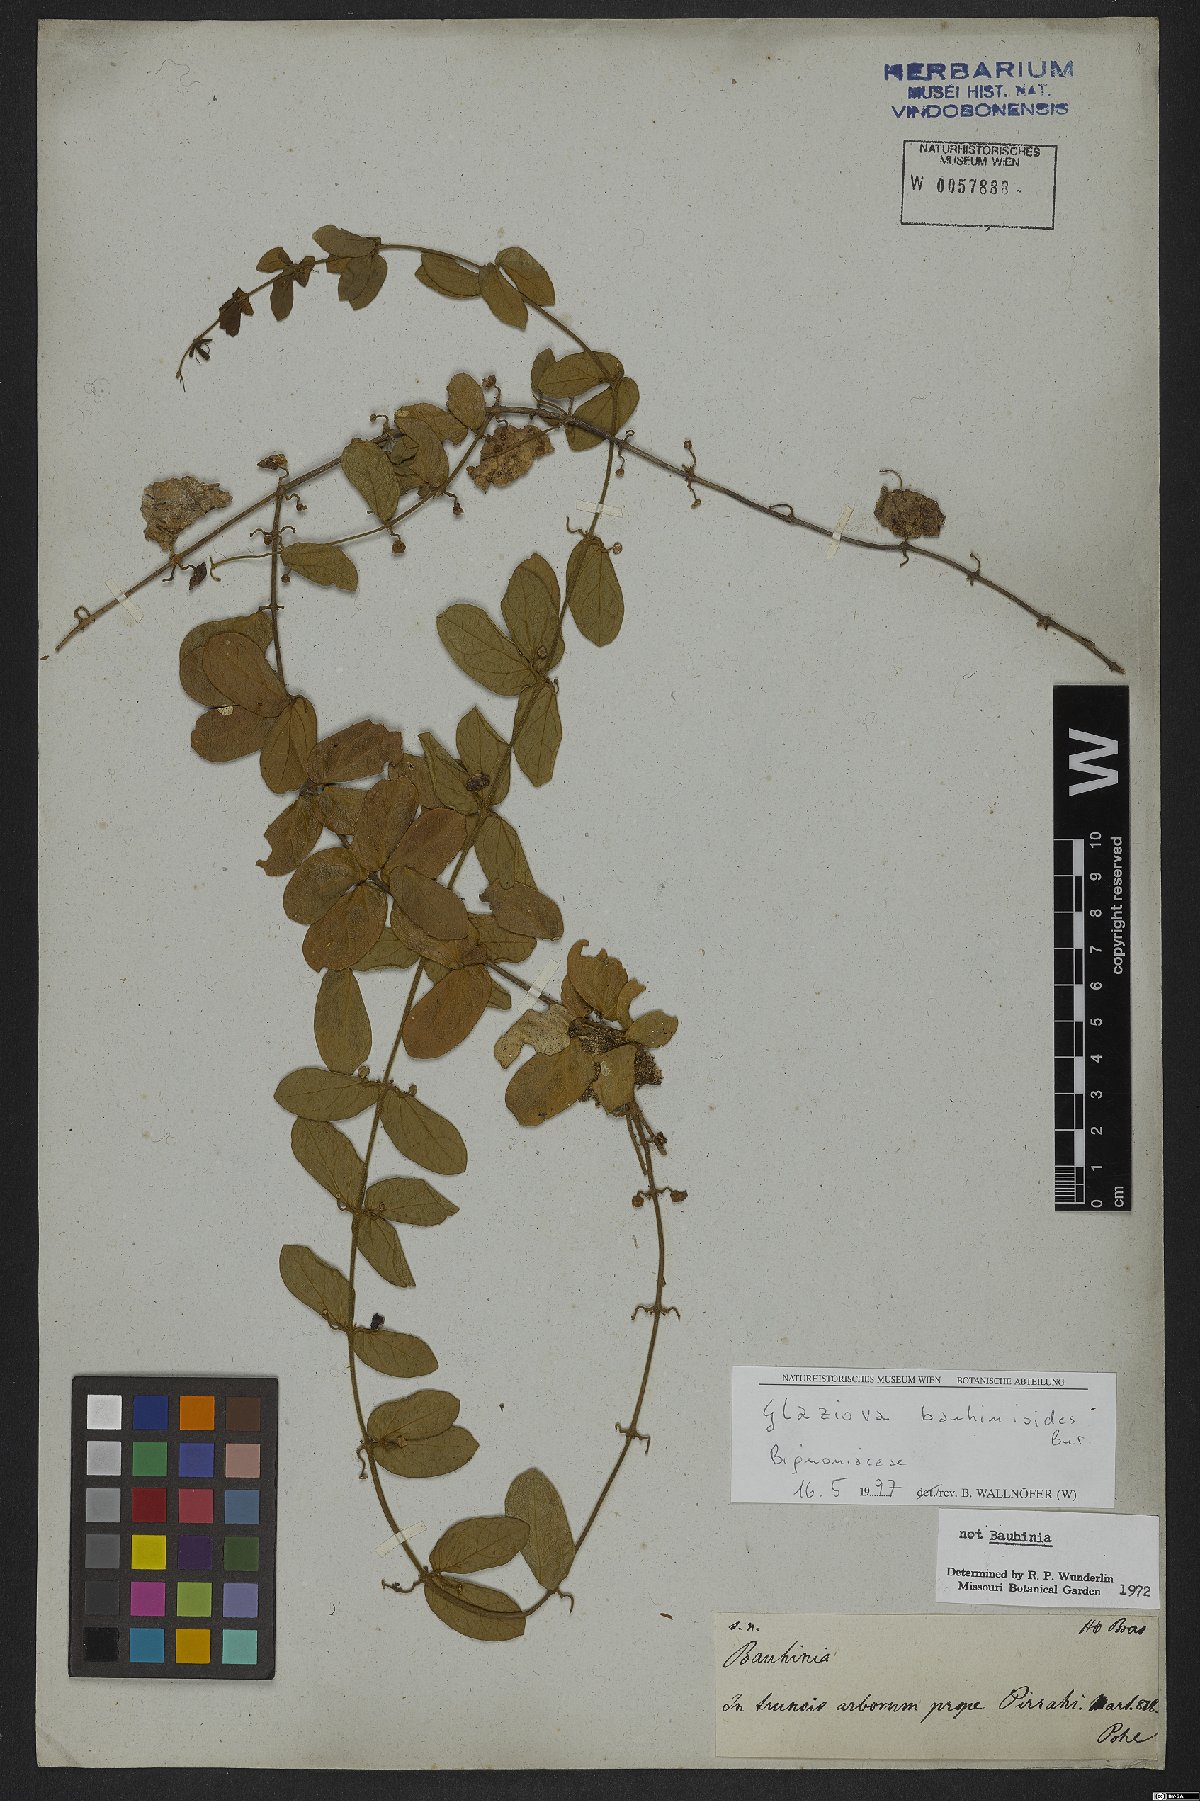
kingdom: Plantae
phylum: Tracheophyta
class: Magnoliopsida
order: Lamiales
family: Bignoniaceae
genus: Amphilophium
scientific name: Amphilophium bauhinioides
